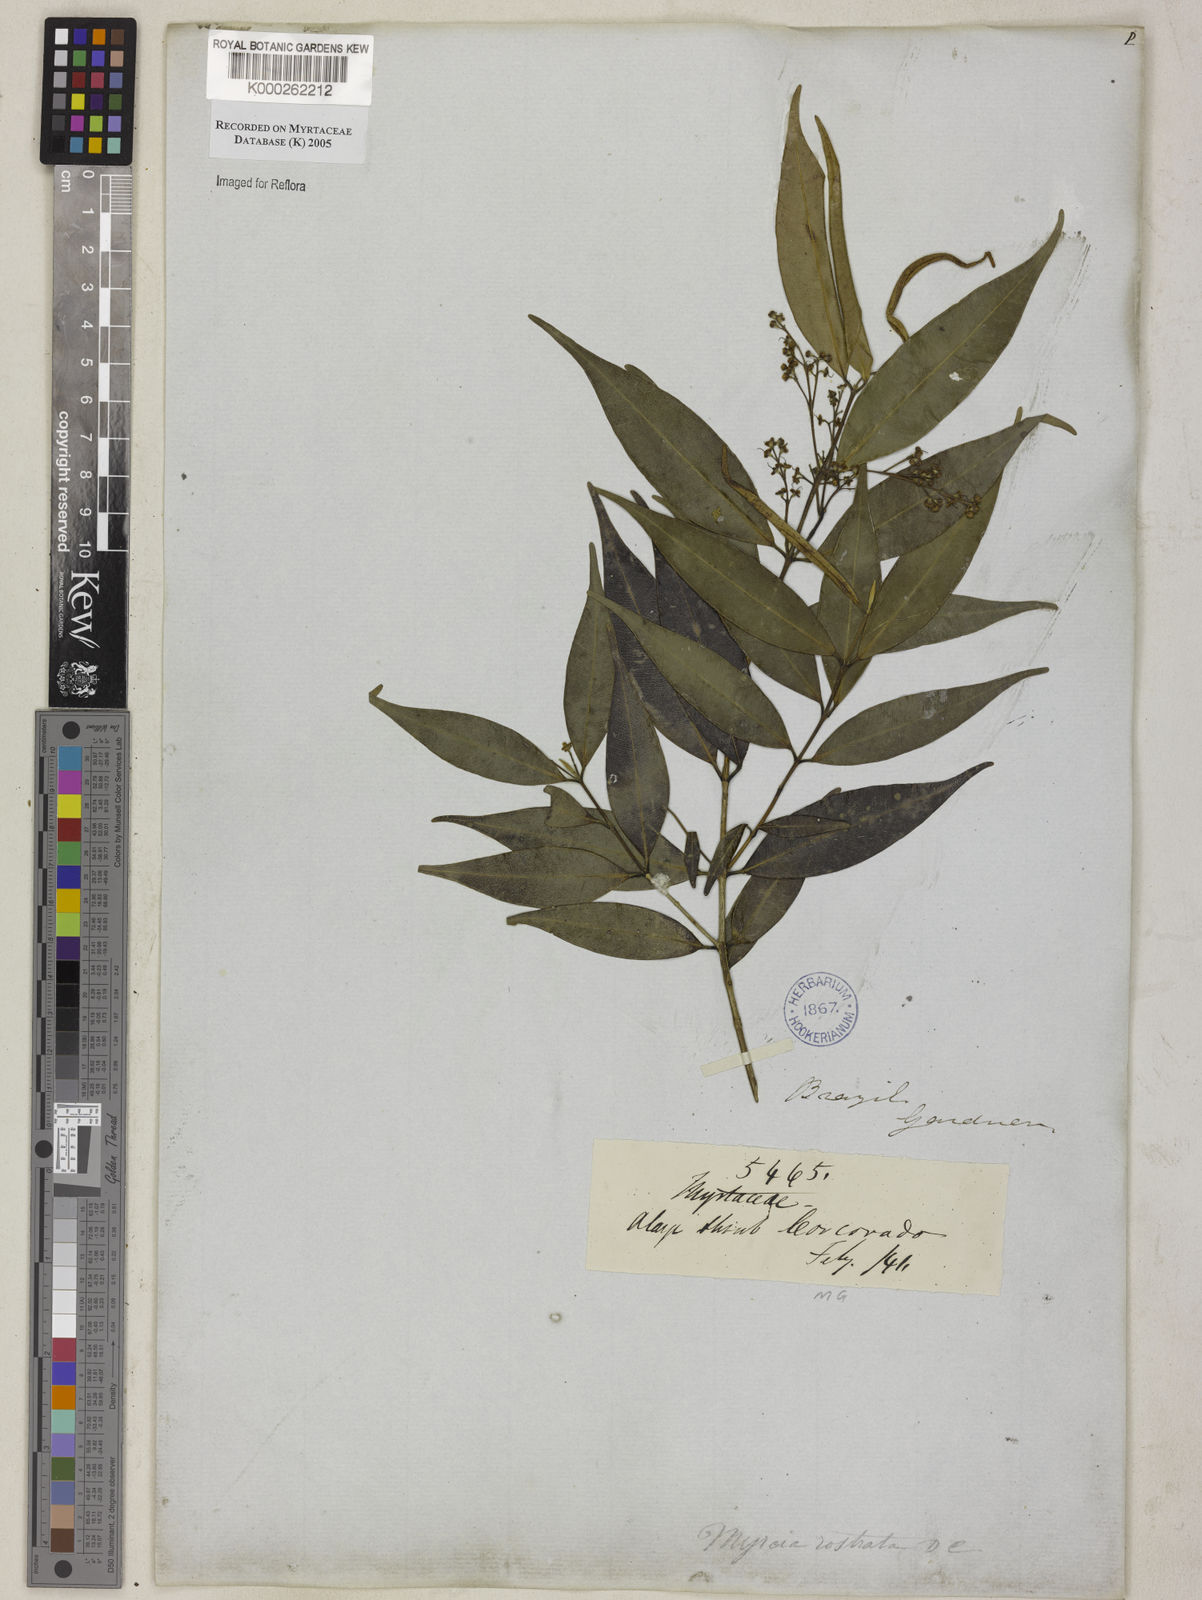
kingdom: Plantae
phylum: Tracheophyta
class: Magnoliopsida
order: Myrtales
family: Myrtaceae
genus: Myrcia
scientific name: Myrcia splendens
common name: Surinam cherry
